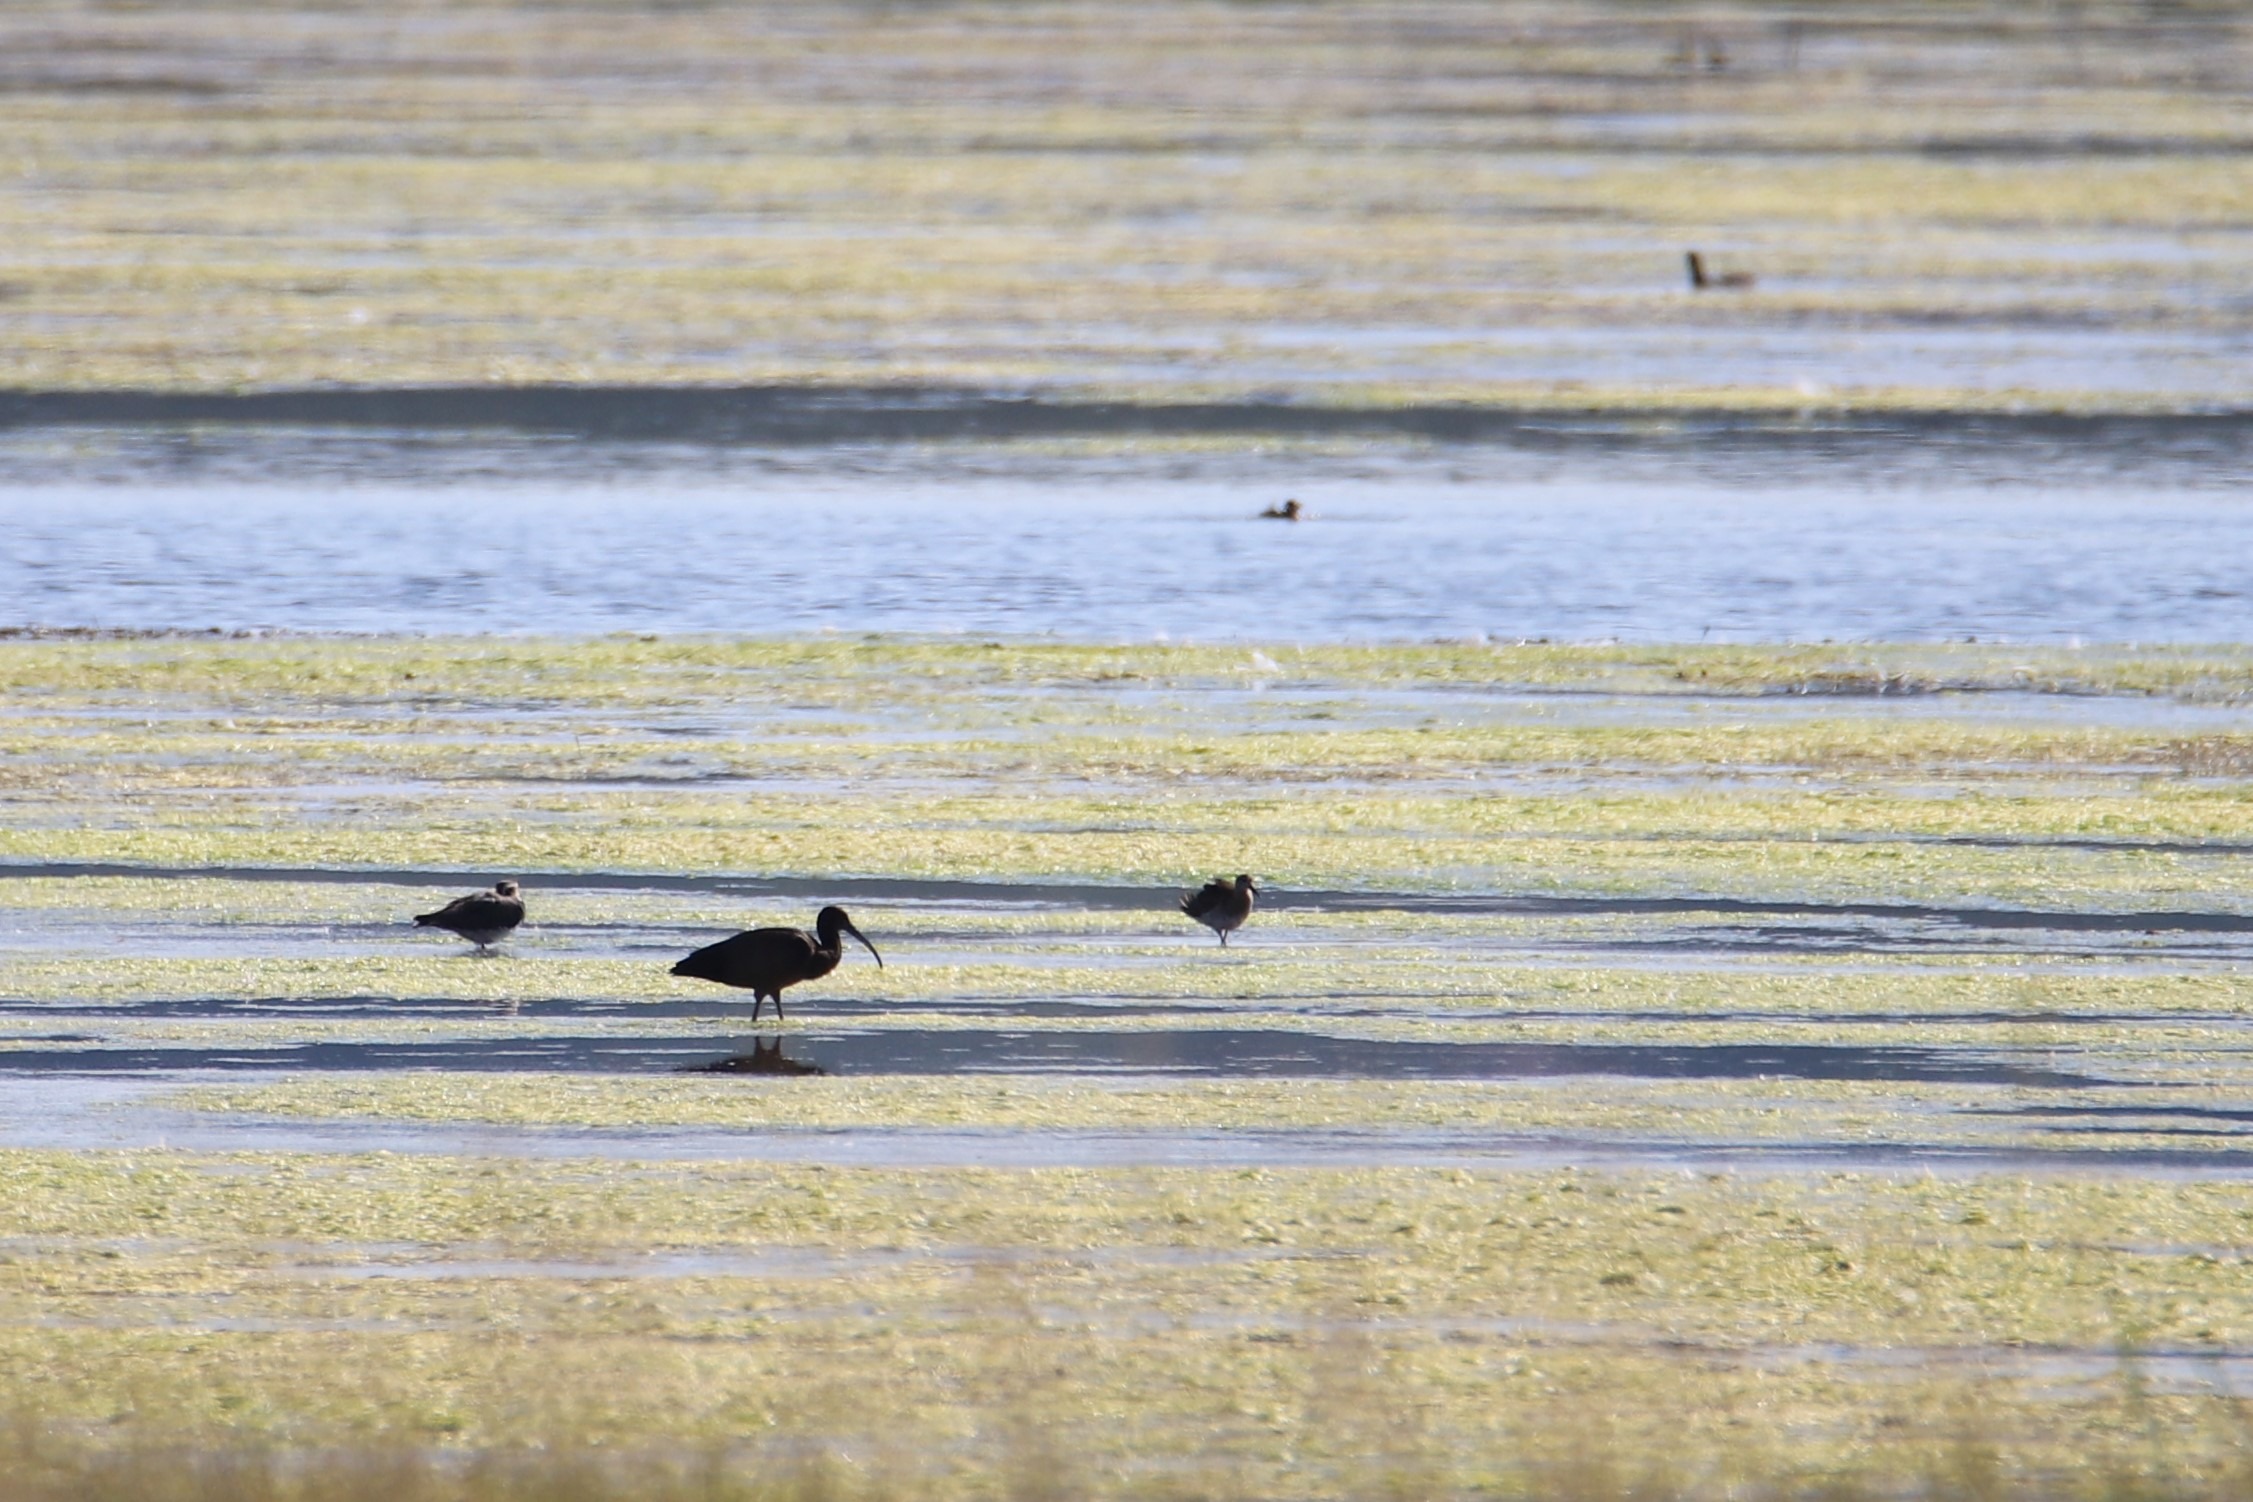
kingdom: Animalia
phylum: Chordata
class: Aves
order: Pelecaniformes
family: Threskiornithidae
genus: Plegadis
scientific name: Plegadis falcinellus
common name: Sort ibis
